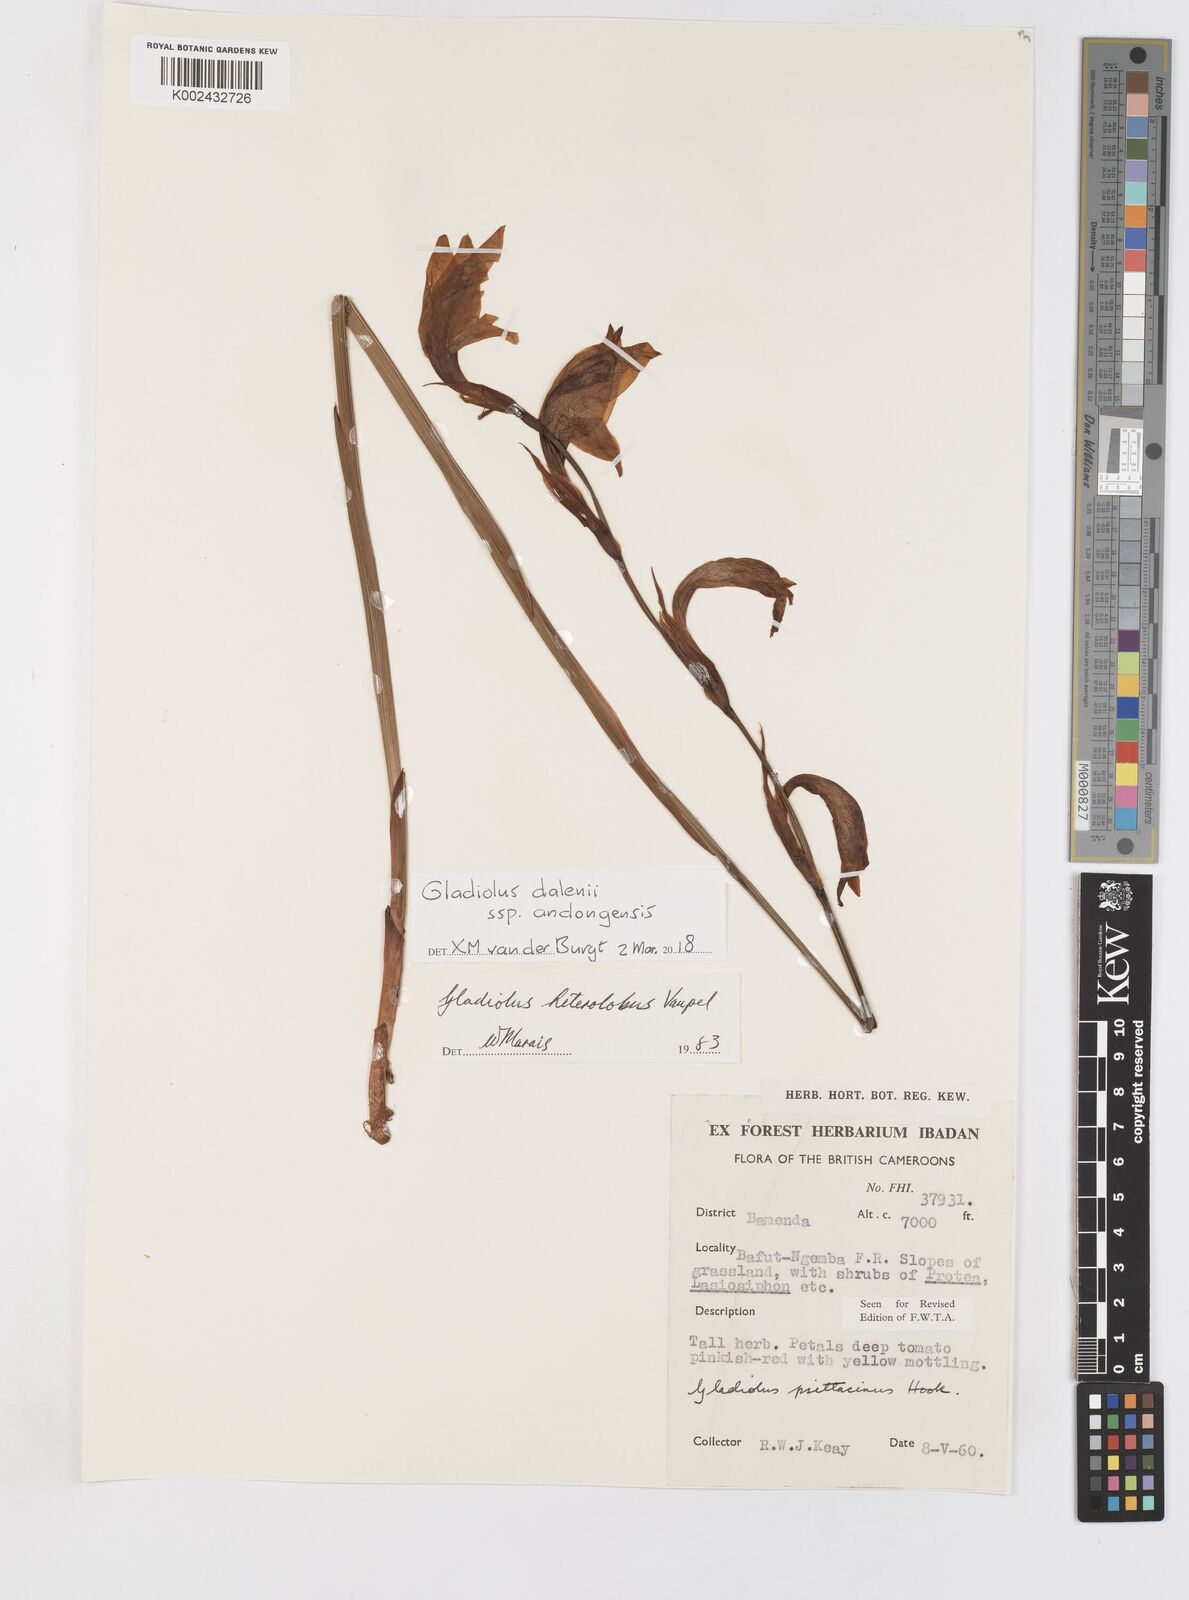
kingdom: Plantae
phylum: Tracheophyta
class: Liliopsida
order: Asparagales
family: Iridaceae
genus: Gladiolus
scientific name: Gladiolus dalenii
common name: Cornflag
